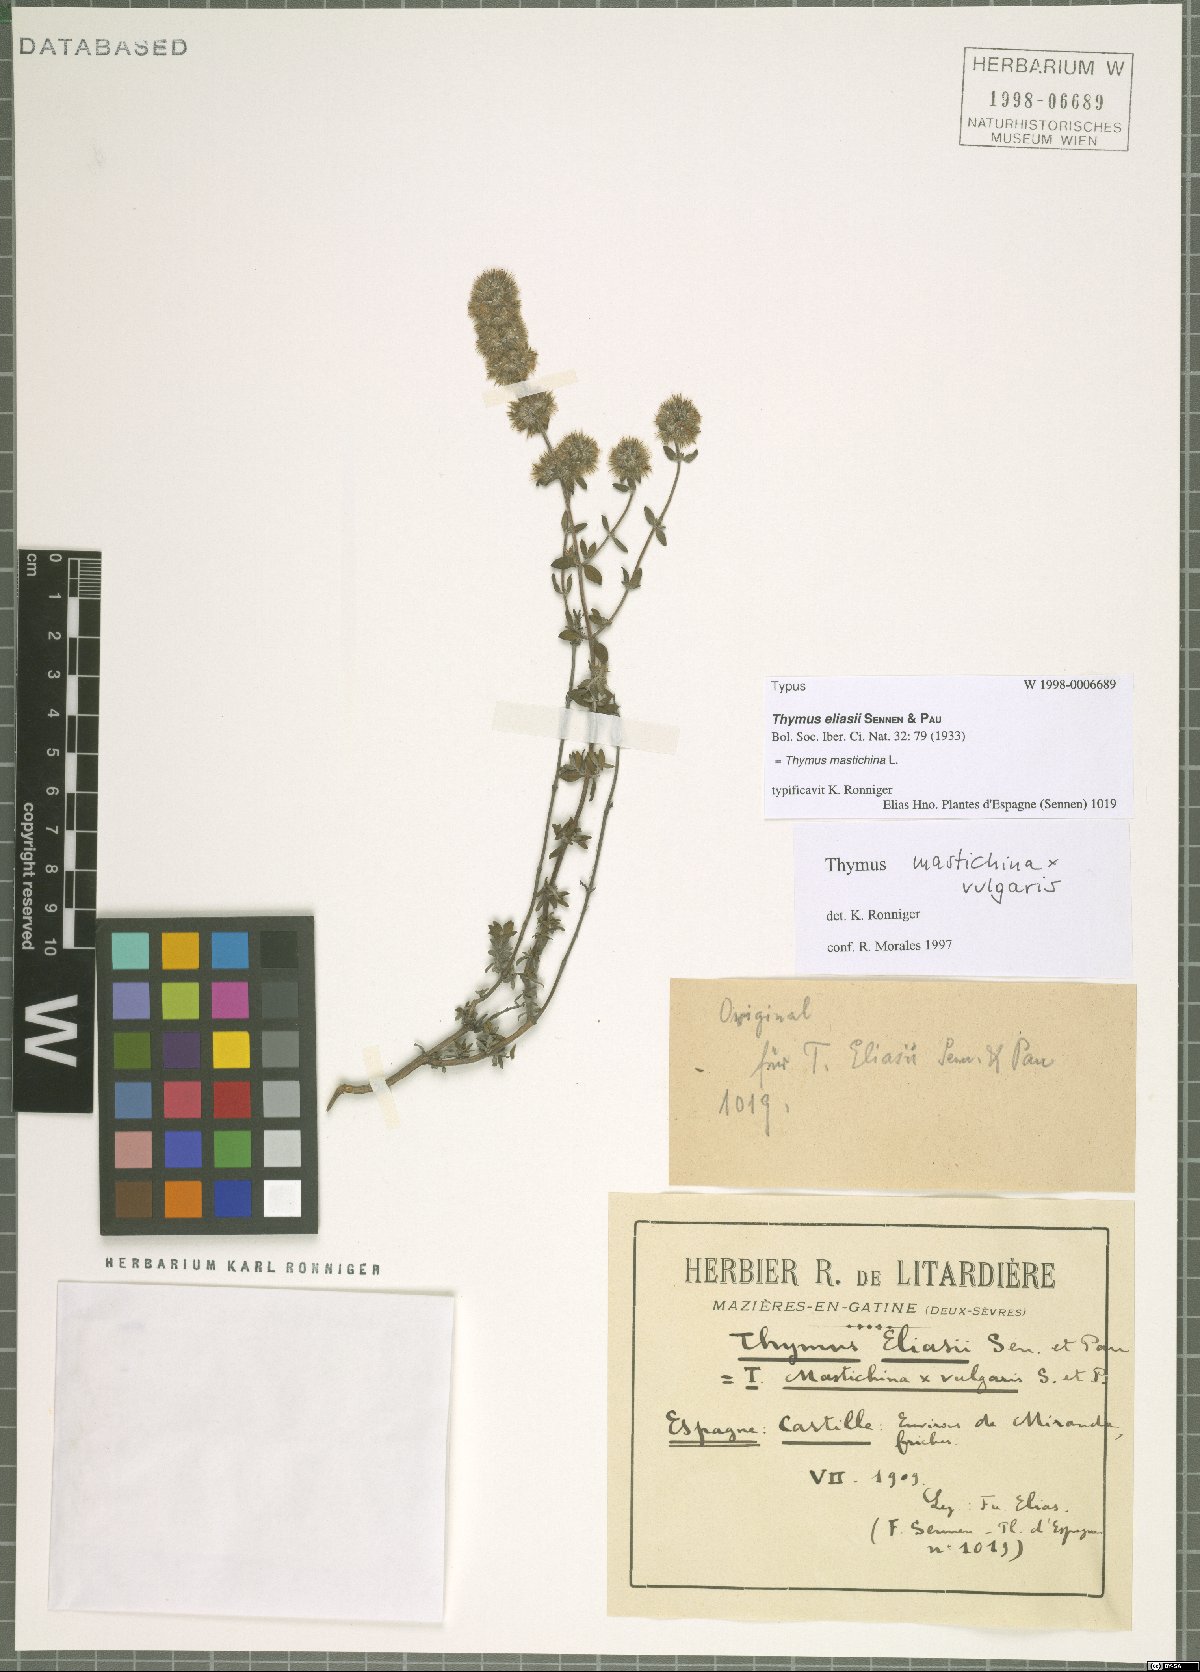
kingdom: Plantae
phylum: Tracheophyta
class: Magnoliopsida
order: Lamiales
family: Lamiaceae
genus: Thymus
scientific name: Thymus mastichina
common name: Mastic thyme
